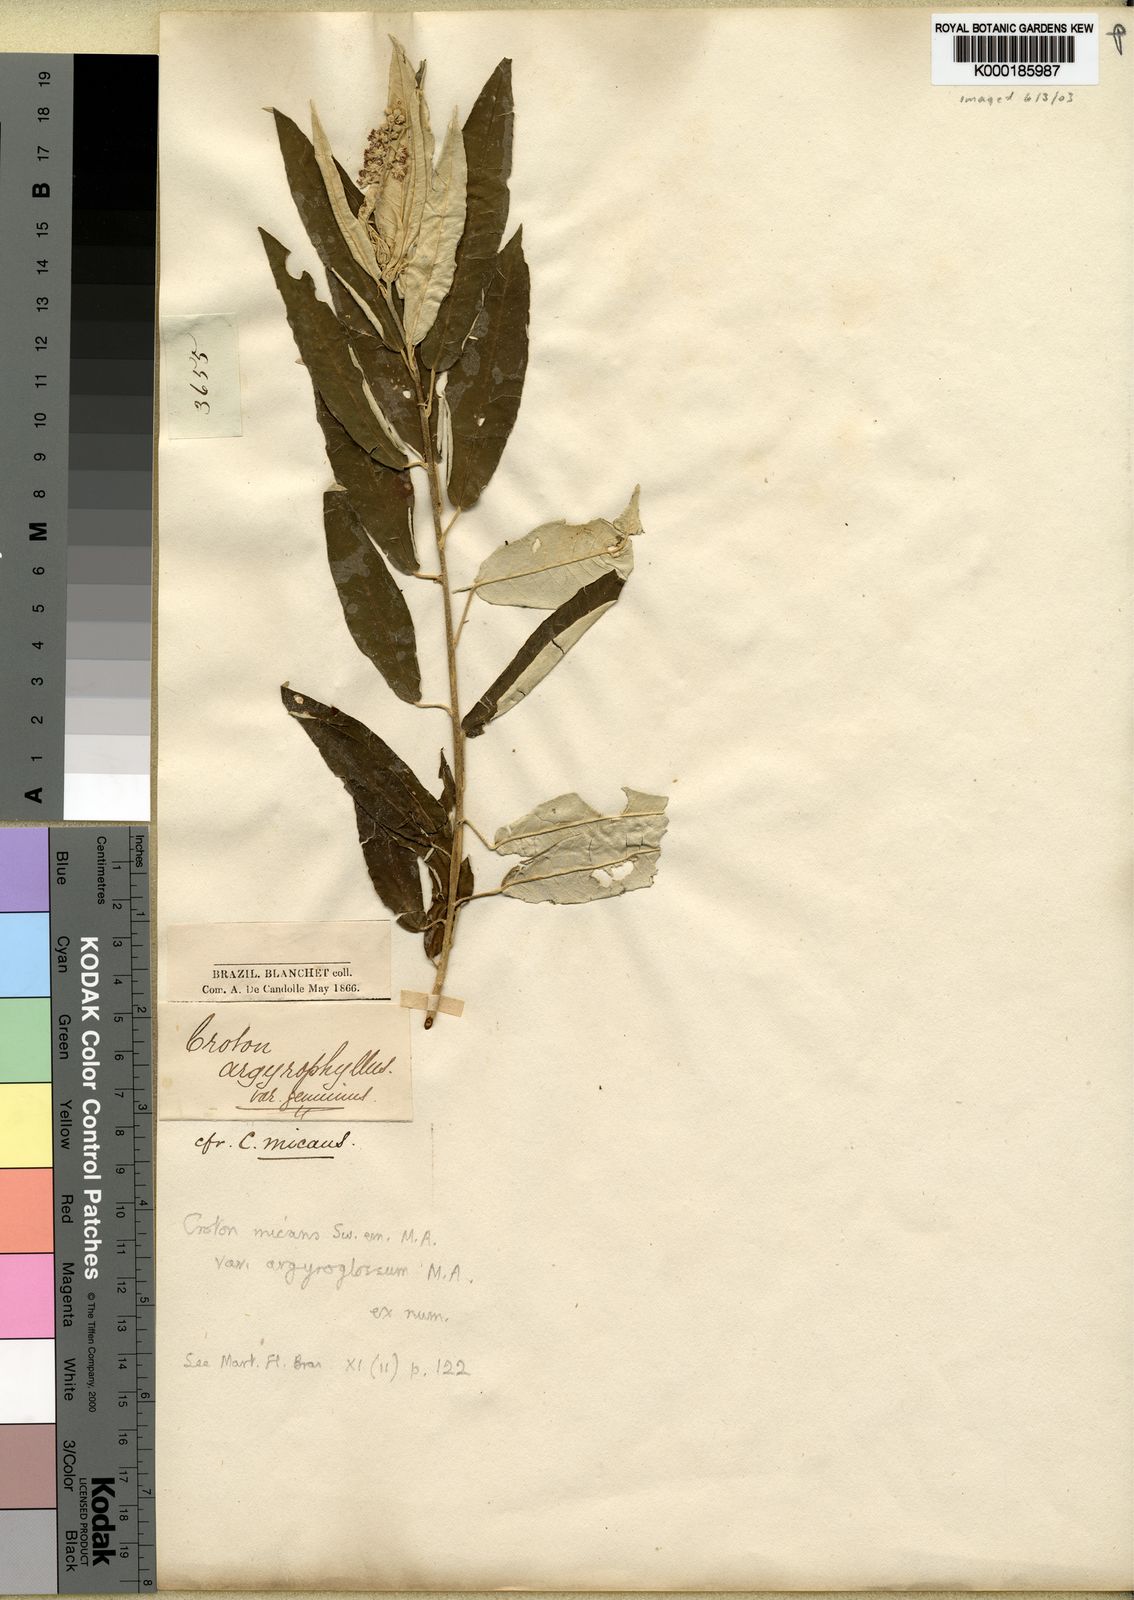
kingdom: Plantae
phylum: Tracheophyta
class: Magnoliopsida
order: Malpighiales
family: Euphorbiaceae
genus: Croton
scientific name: Croton micans
